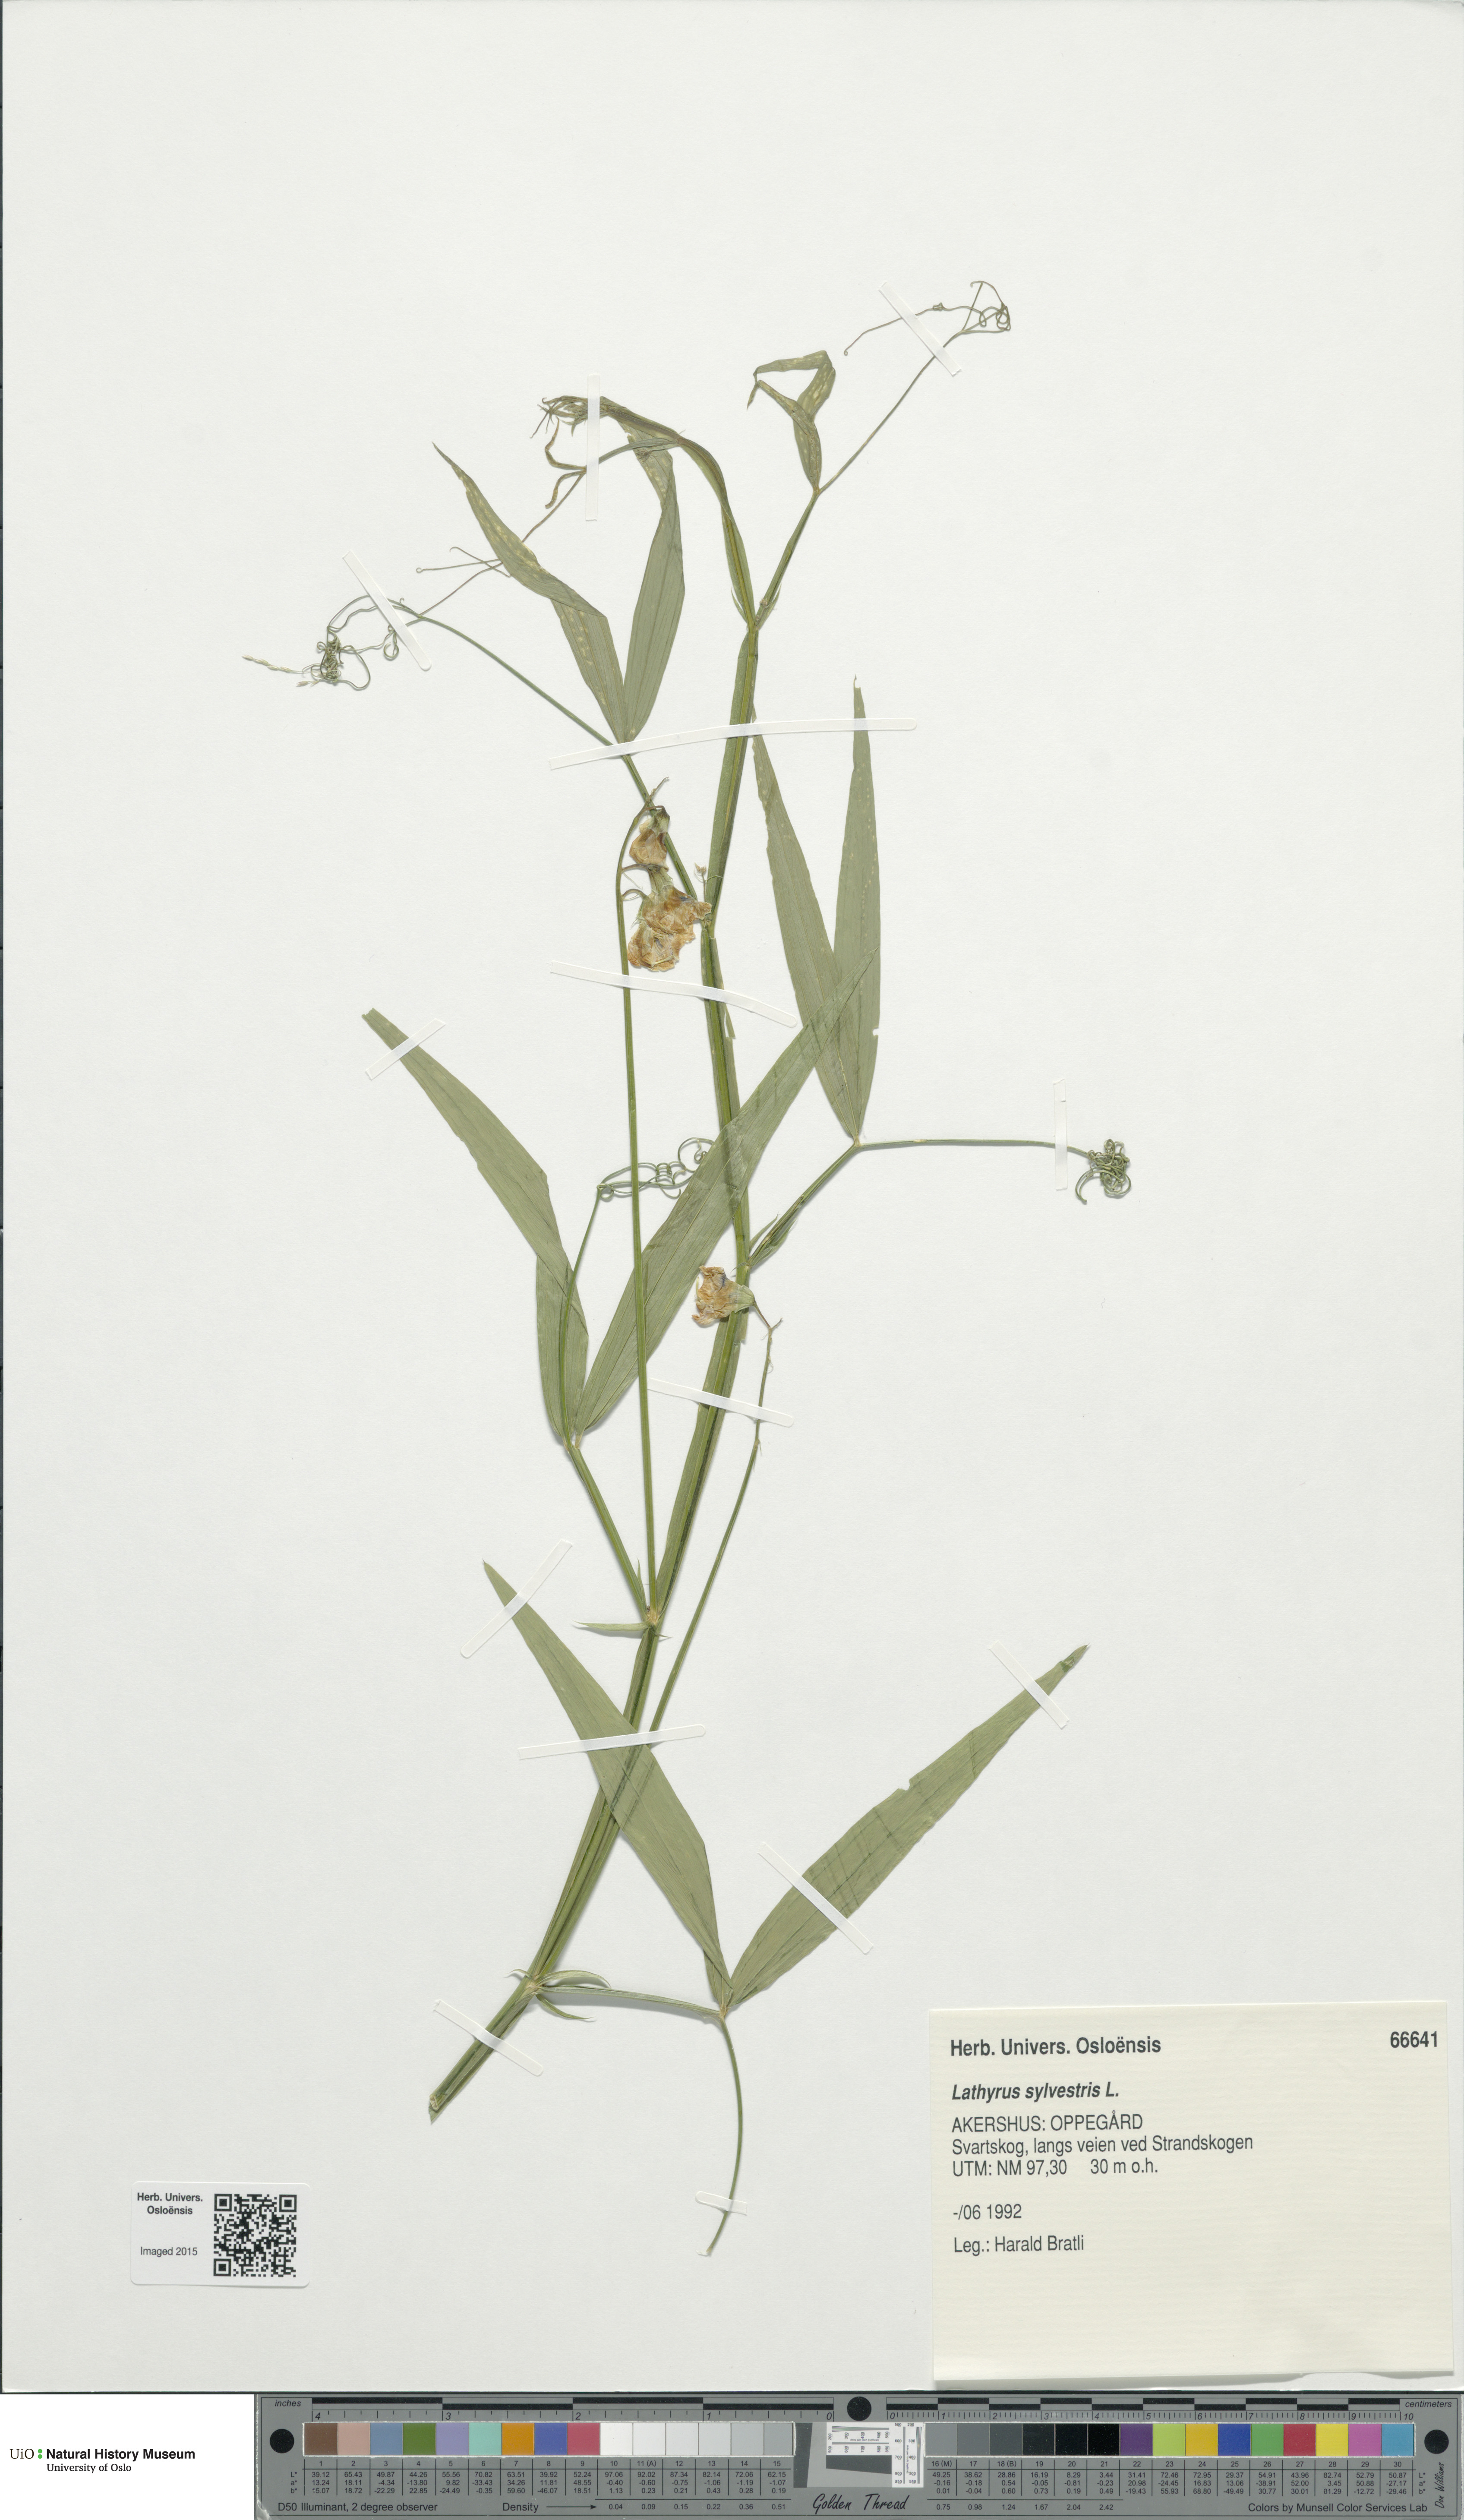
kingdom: Plantae
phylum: Tracheophyta
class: Magnoliopsida
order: Fabales
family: Fabaceae
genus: Lathyrus
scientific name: Lathyrus sylvestris
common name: Flat pea
